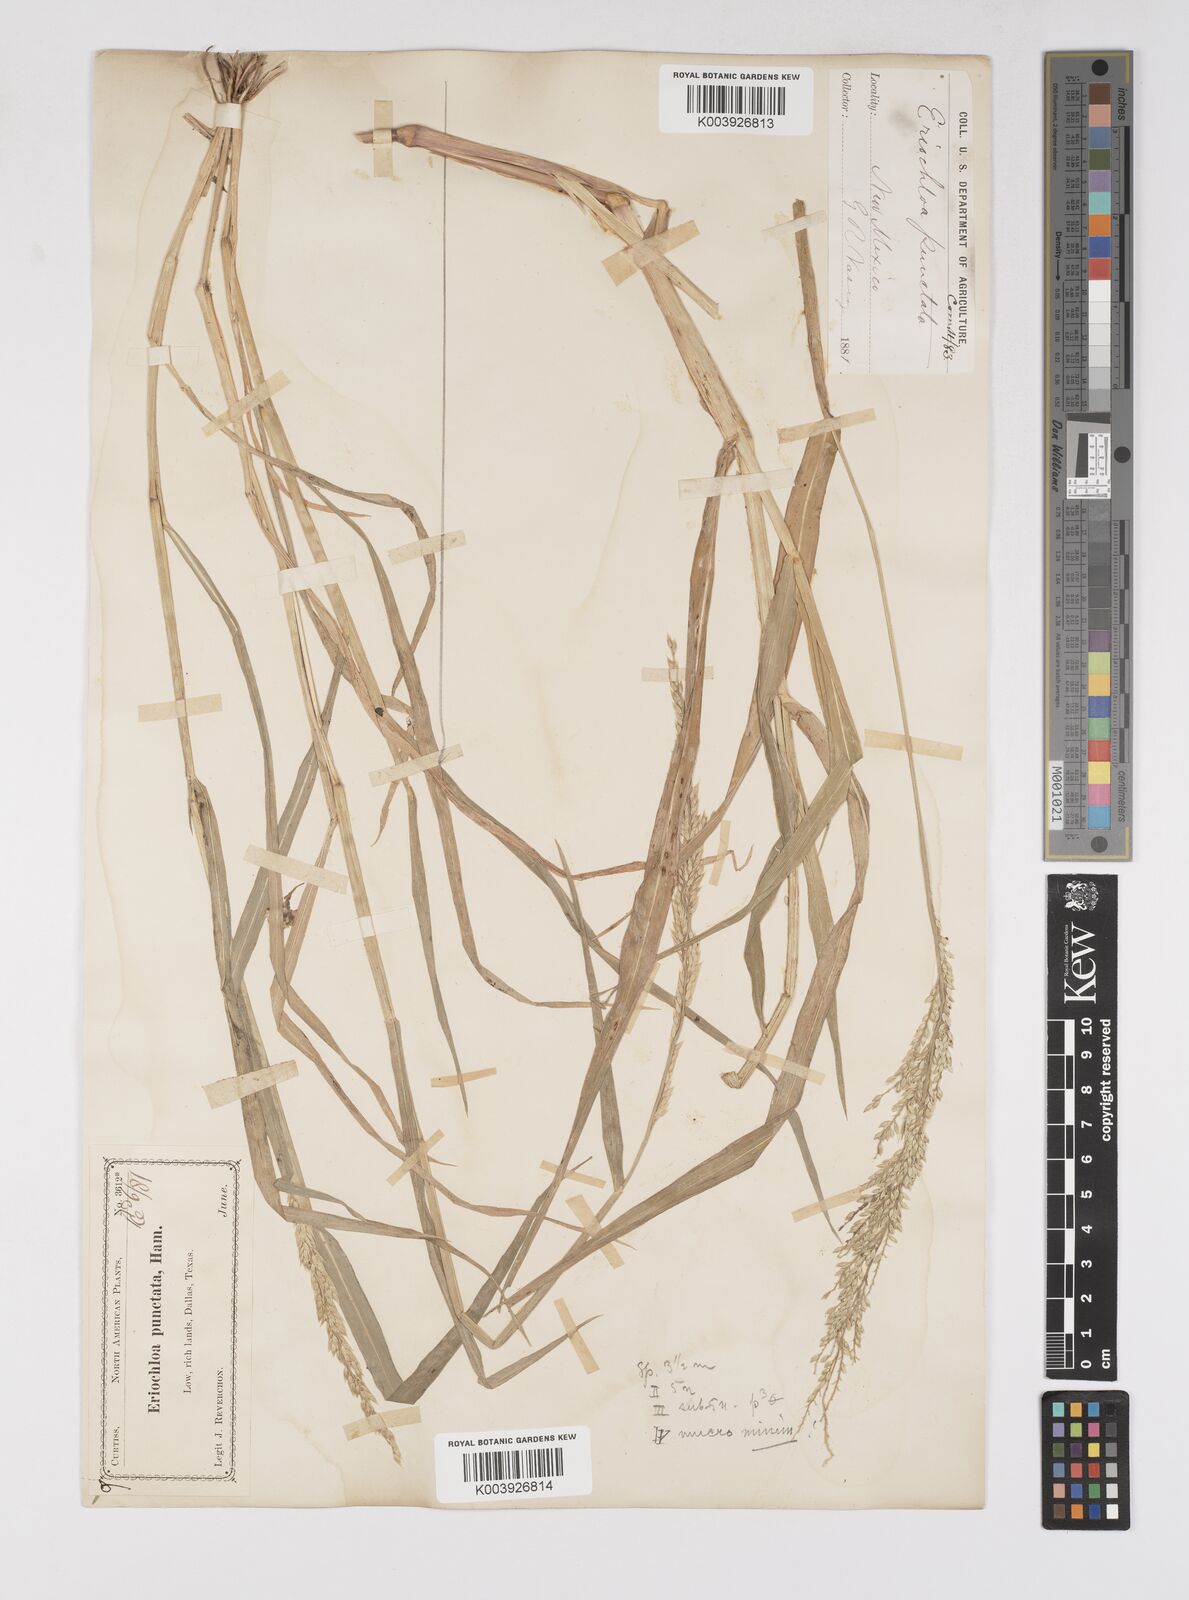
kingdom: Plantae
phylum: Tracheophyta
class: Liliopsida
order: Poales
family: Poaceae
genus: Eriochloa
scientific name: Eriochloa contracta
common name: Prairie cup grass
